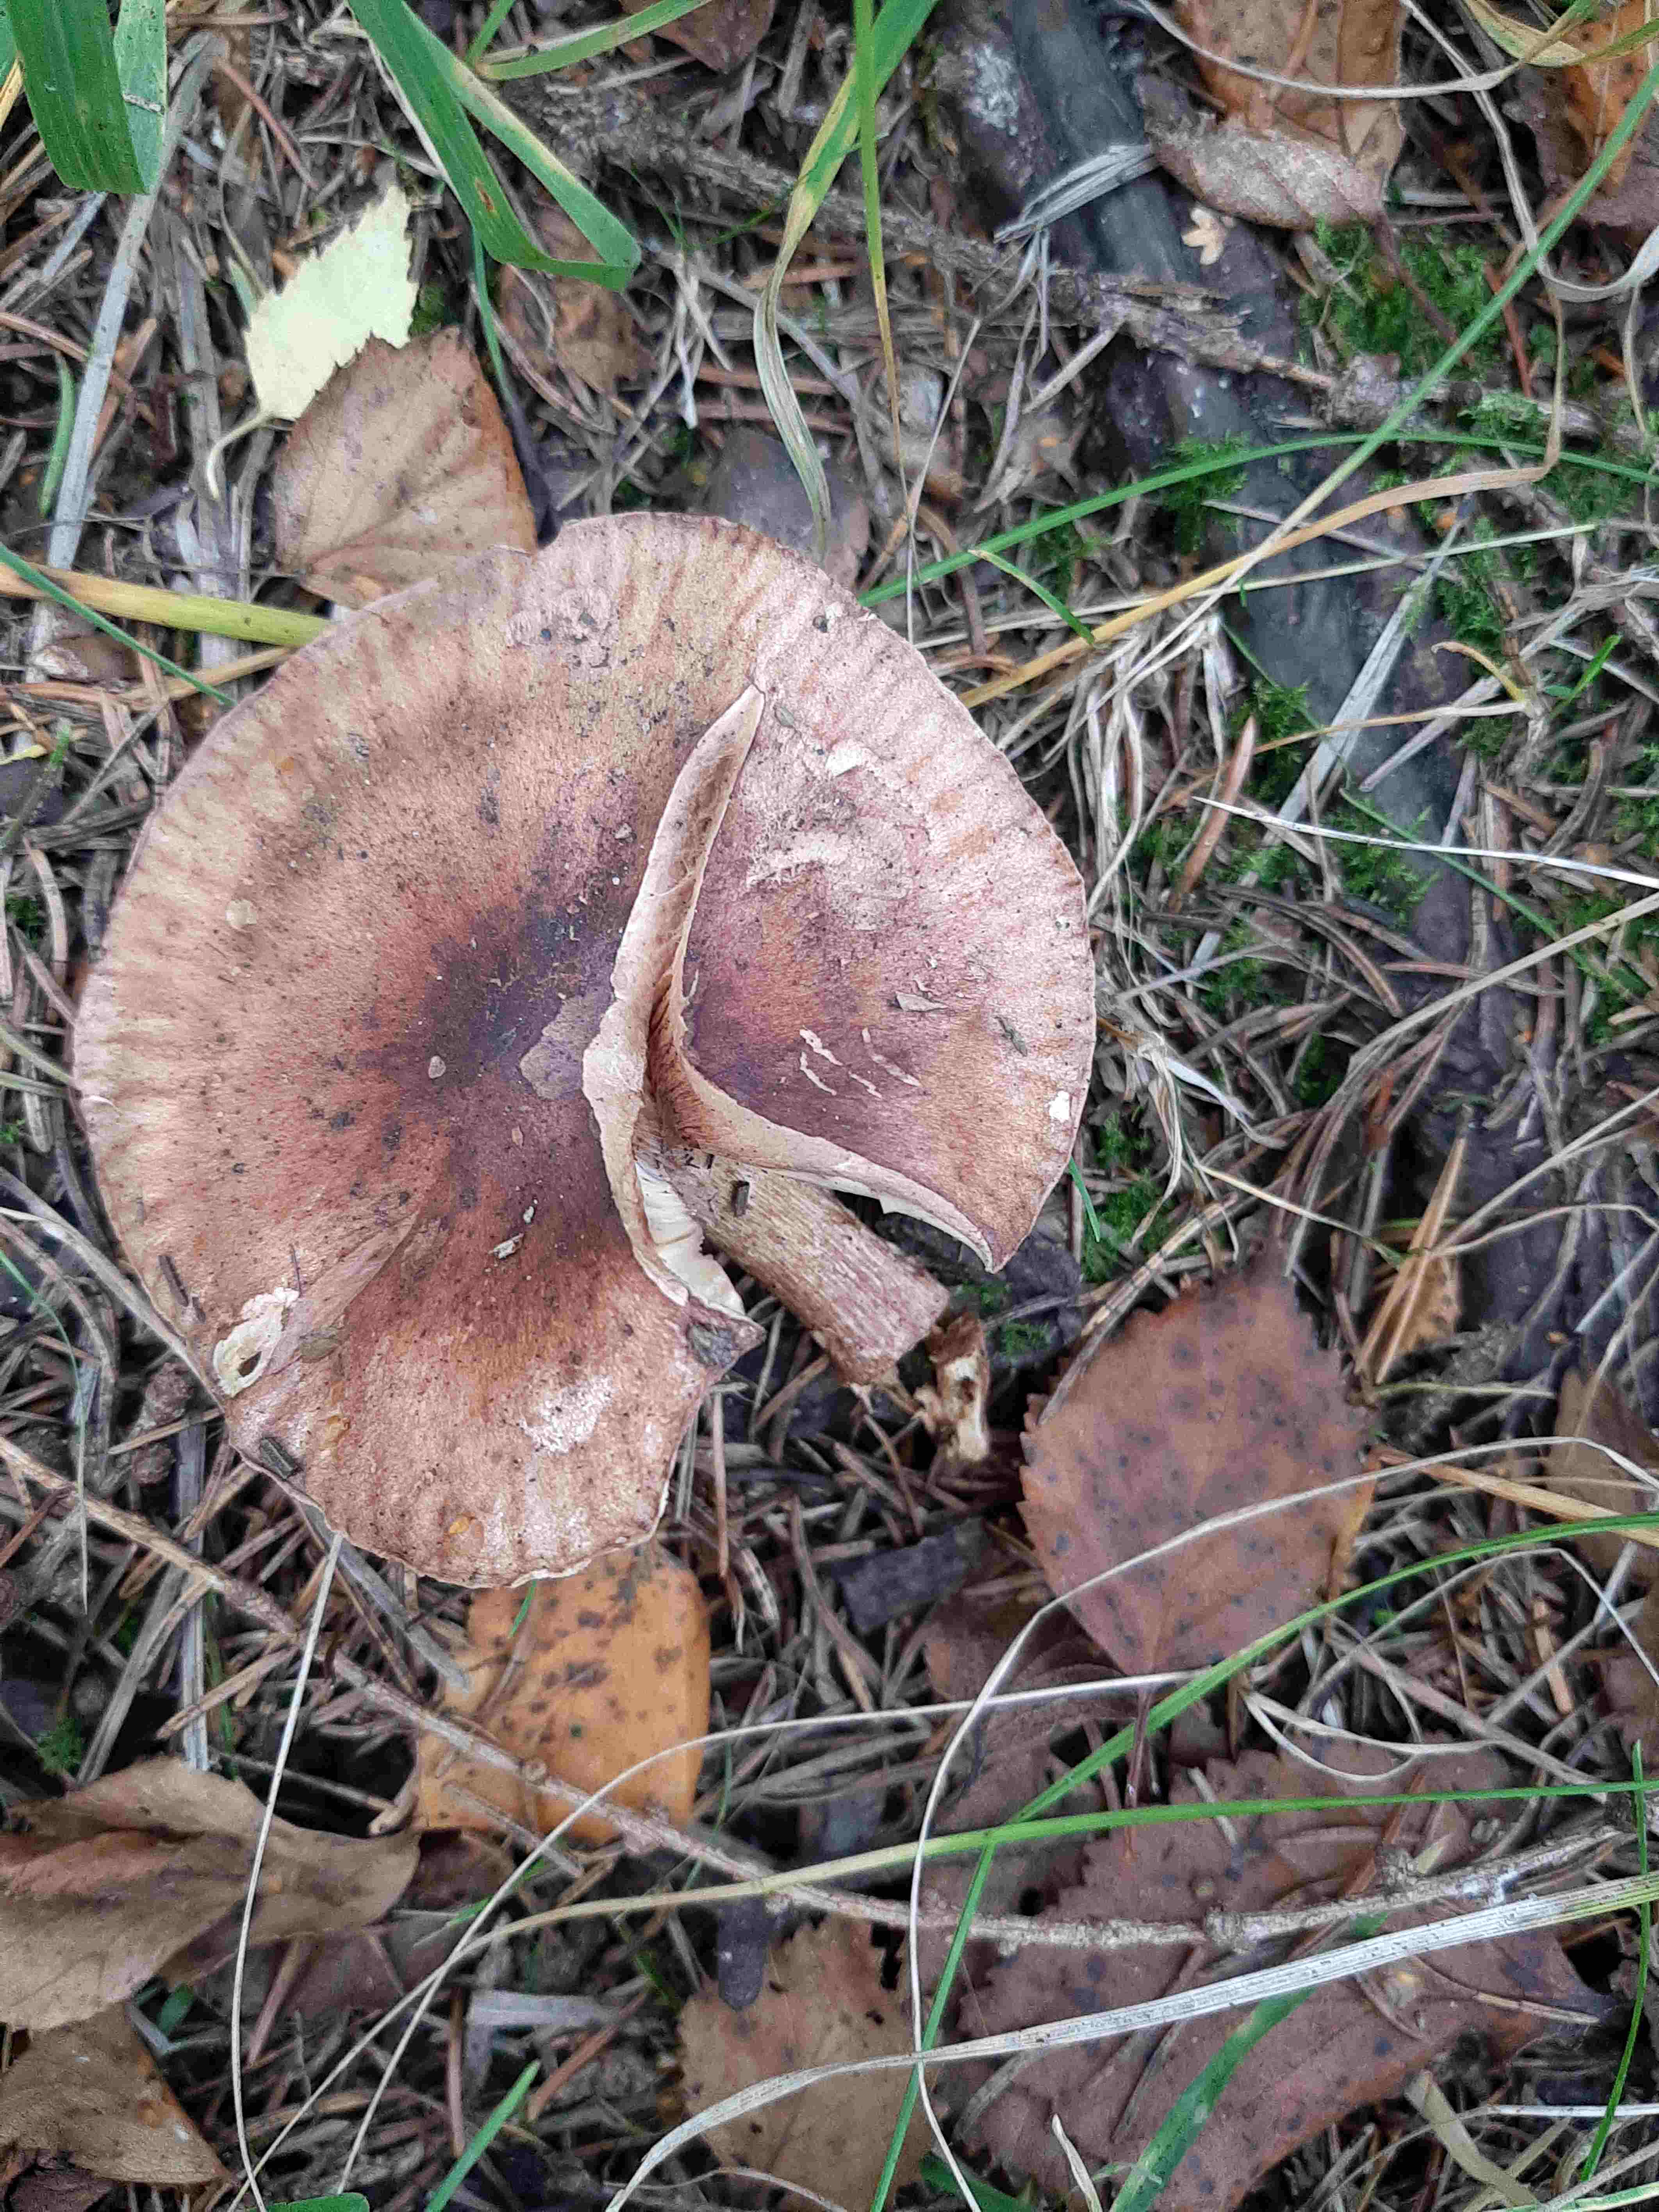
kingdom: Fungi
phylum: Basidiomycota
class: Agaricomycetes
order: Agaricales
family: Tricholomataceae
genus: Tricholoma
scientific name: Tricholoma fulvum
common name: birke-ridderhat
